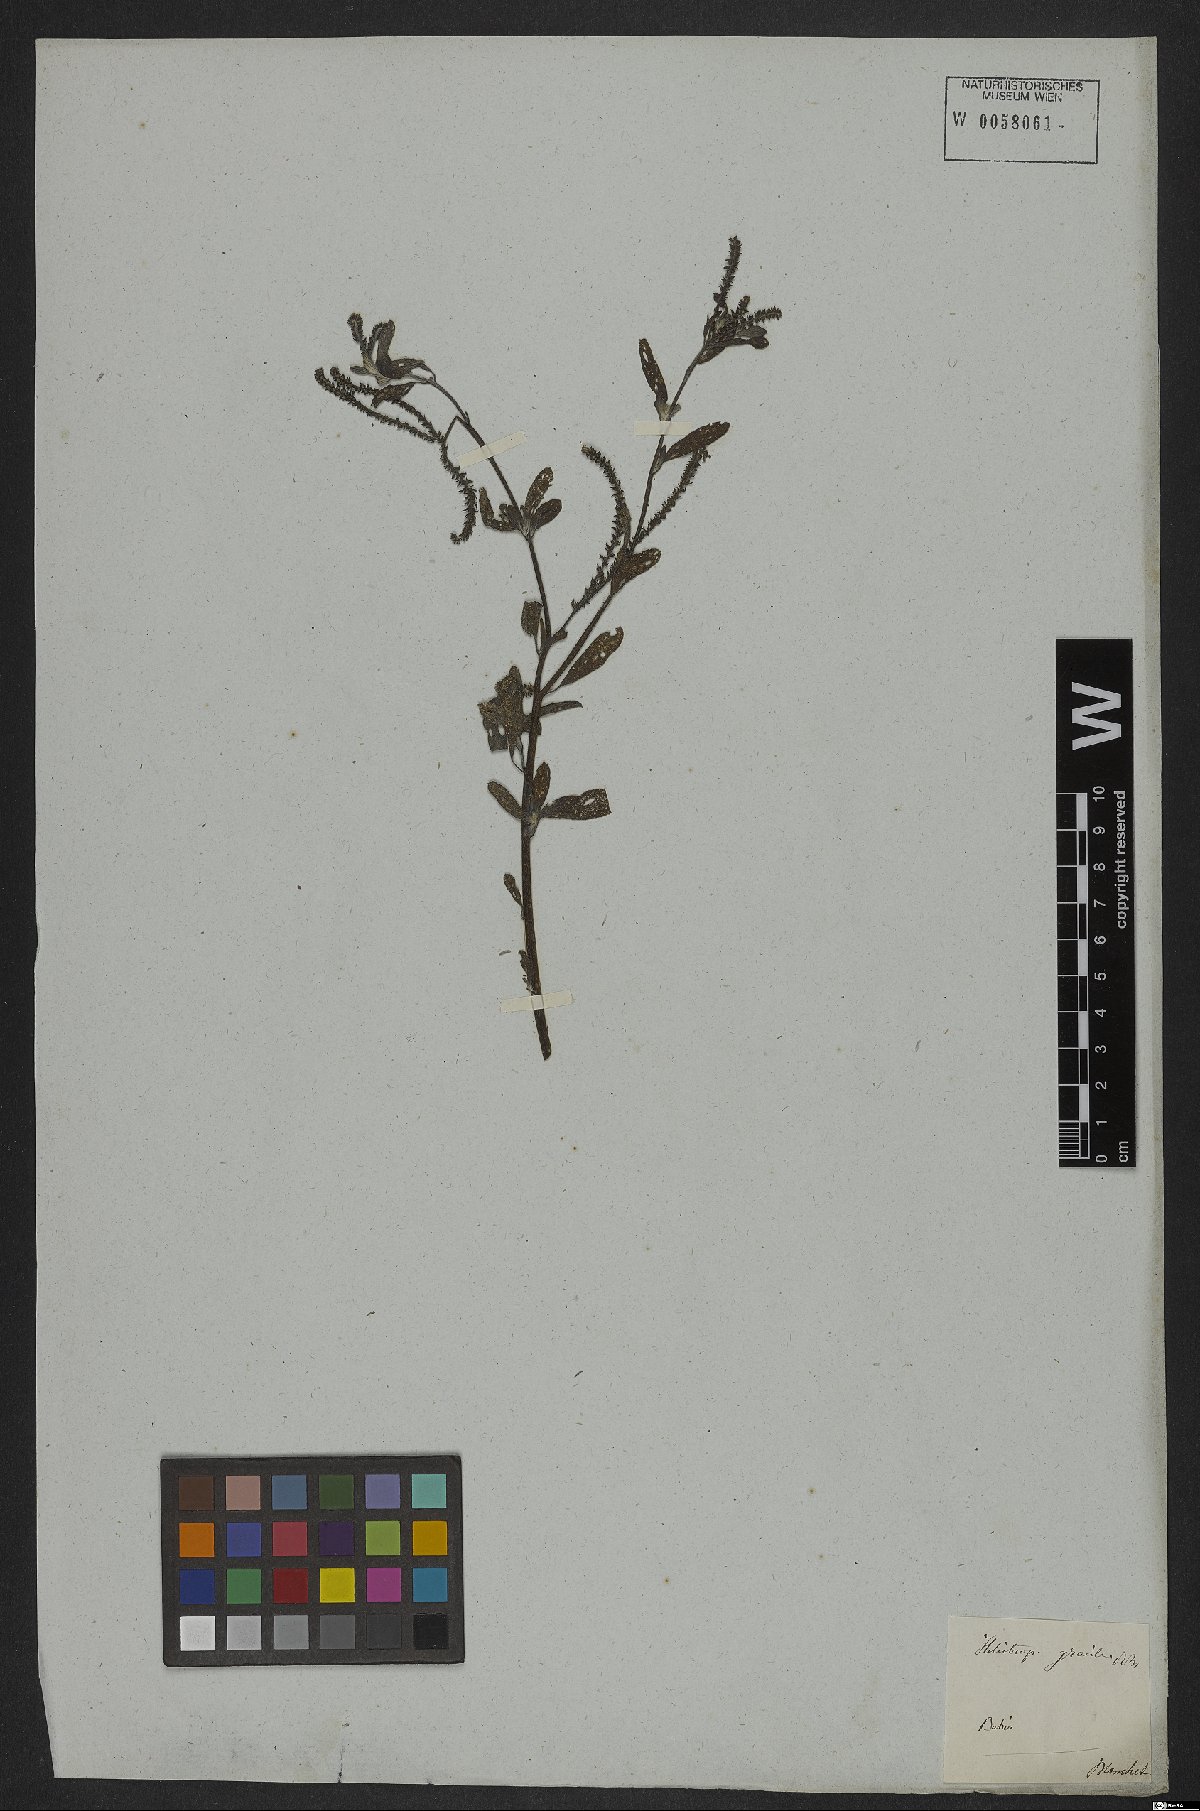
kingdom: Plantae
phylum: Tracheophyta
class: Magnoliopsida
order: Boraginales
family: Heliotropiaceae
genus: Euploca
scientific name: Euploca ovalifolia
